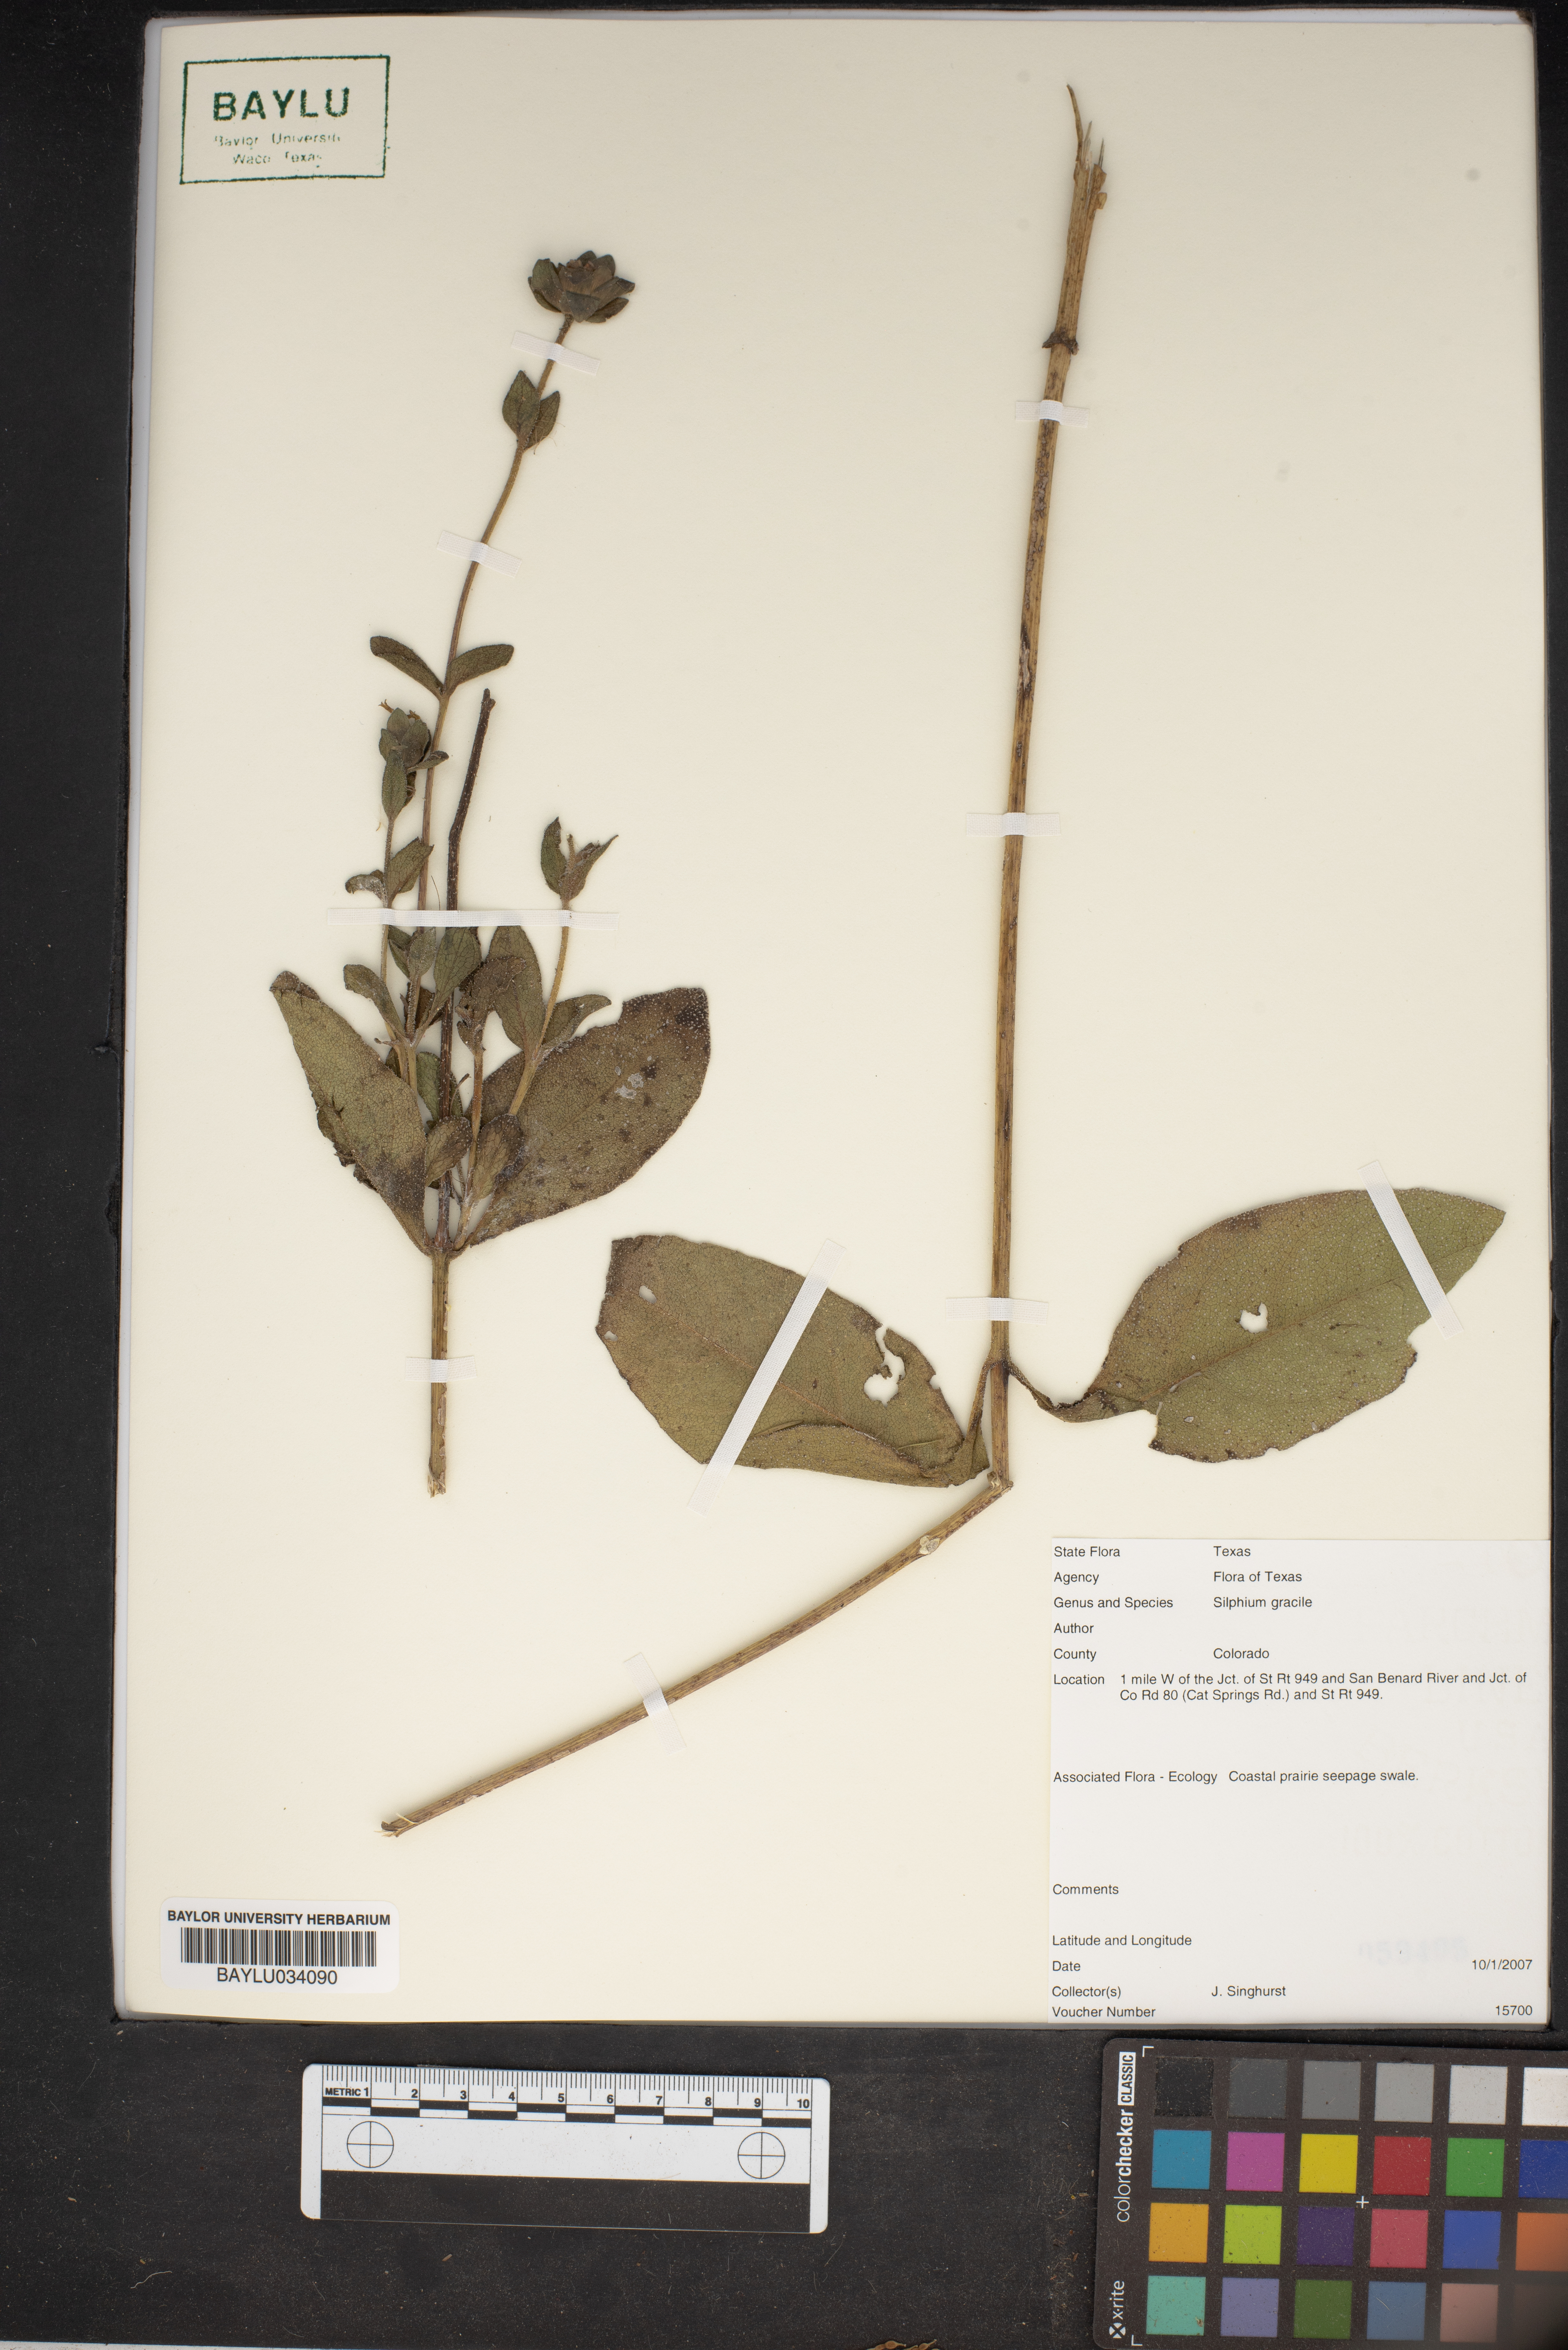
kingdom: Plantae
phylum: Tracheophyta
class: Magnoliopsida
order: Asterales
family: Asteraceae
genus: Silphium
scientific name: Silphium radula
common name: Roughleaf rosinweed
